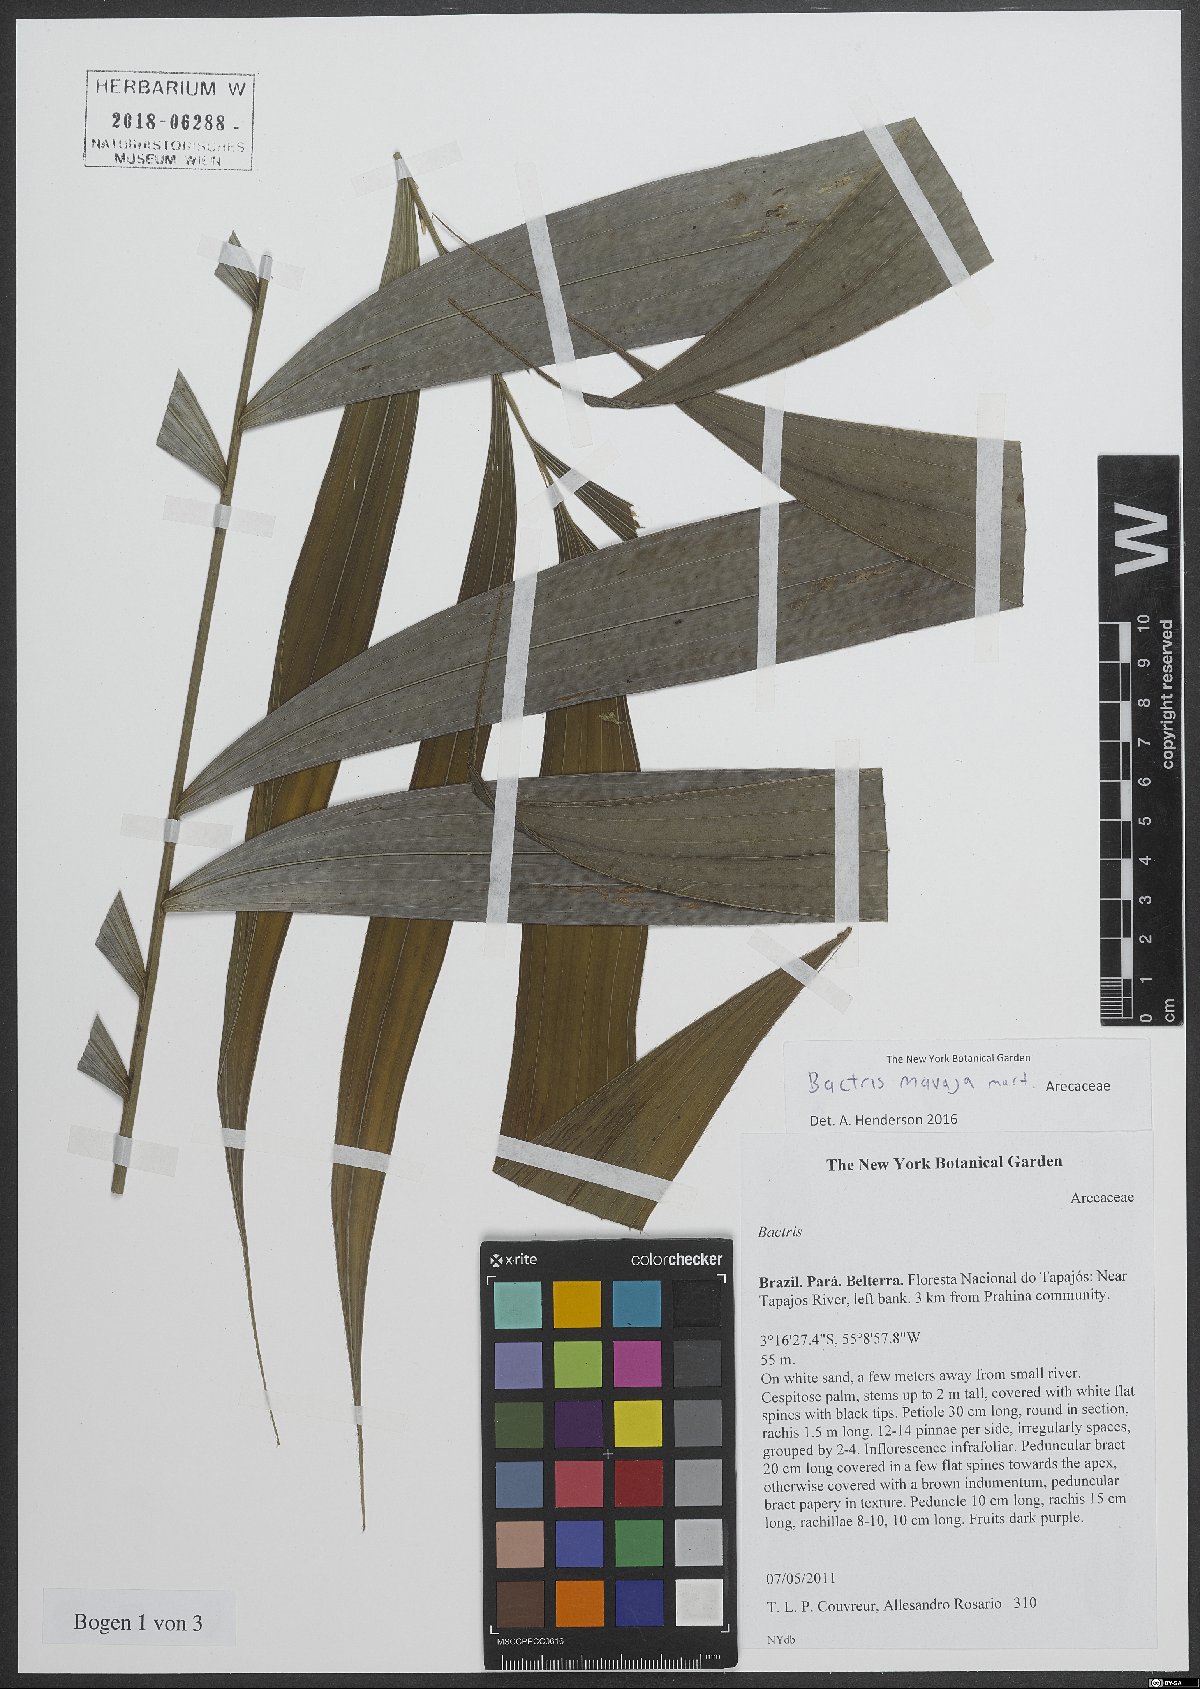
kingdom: Plantae
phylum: Tracheophyta
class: Liliopsida
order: Arecales
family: Arecaceae
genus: Bactris
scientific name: Bactris maraja
